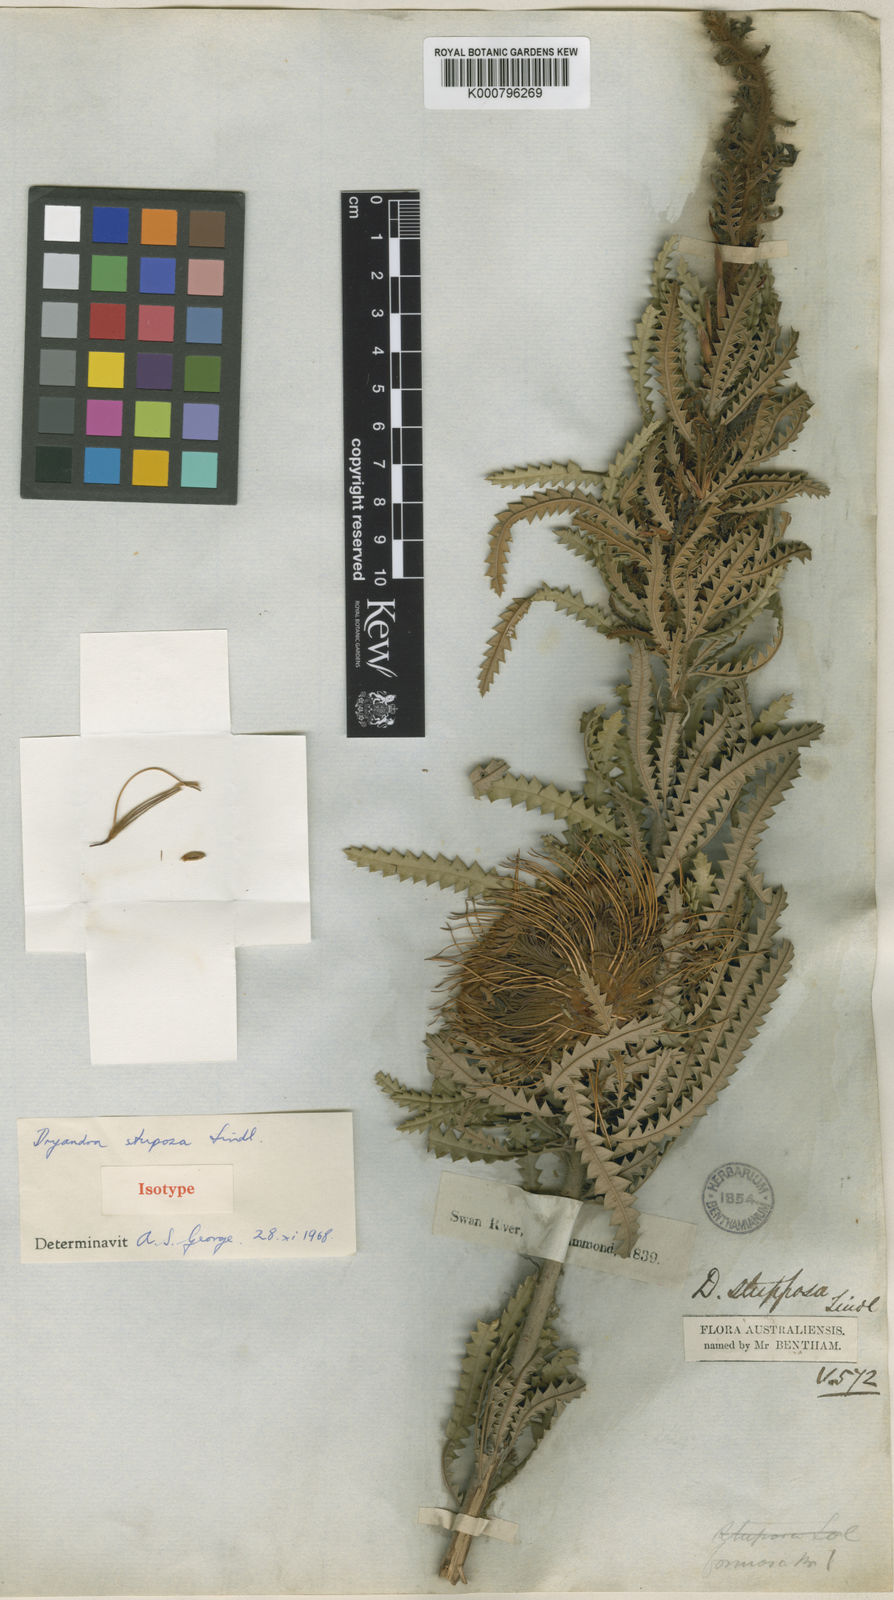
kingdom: Plantae
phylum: Tracheophyta
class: Magnoliopsida
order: Proteales
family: Proteaceae
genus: Banksia
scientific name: Banksia stuposa
